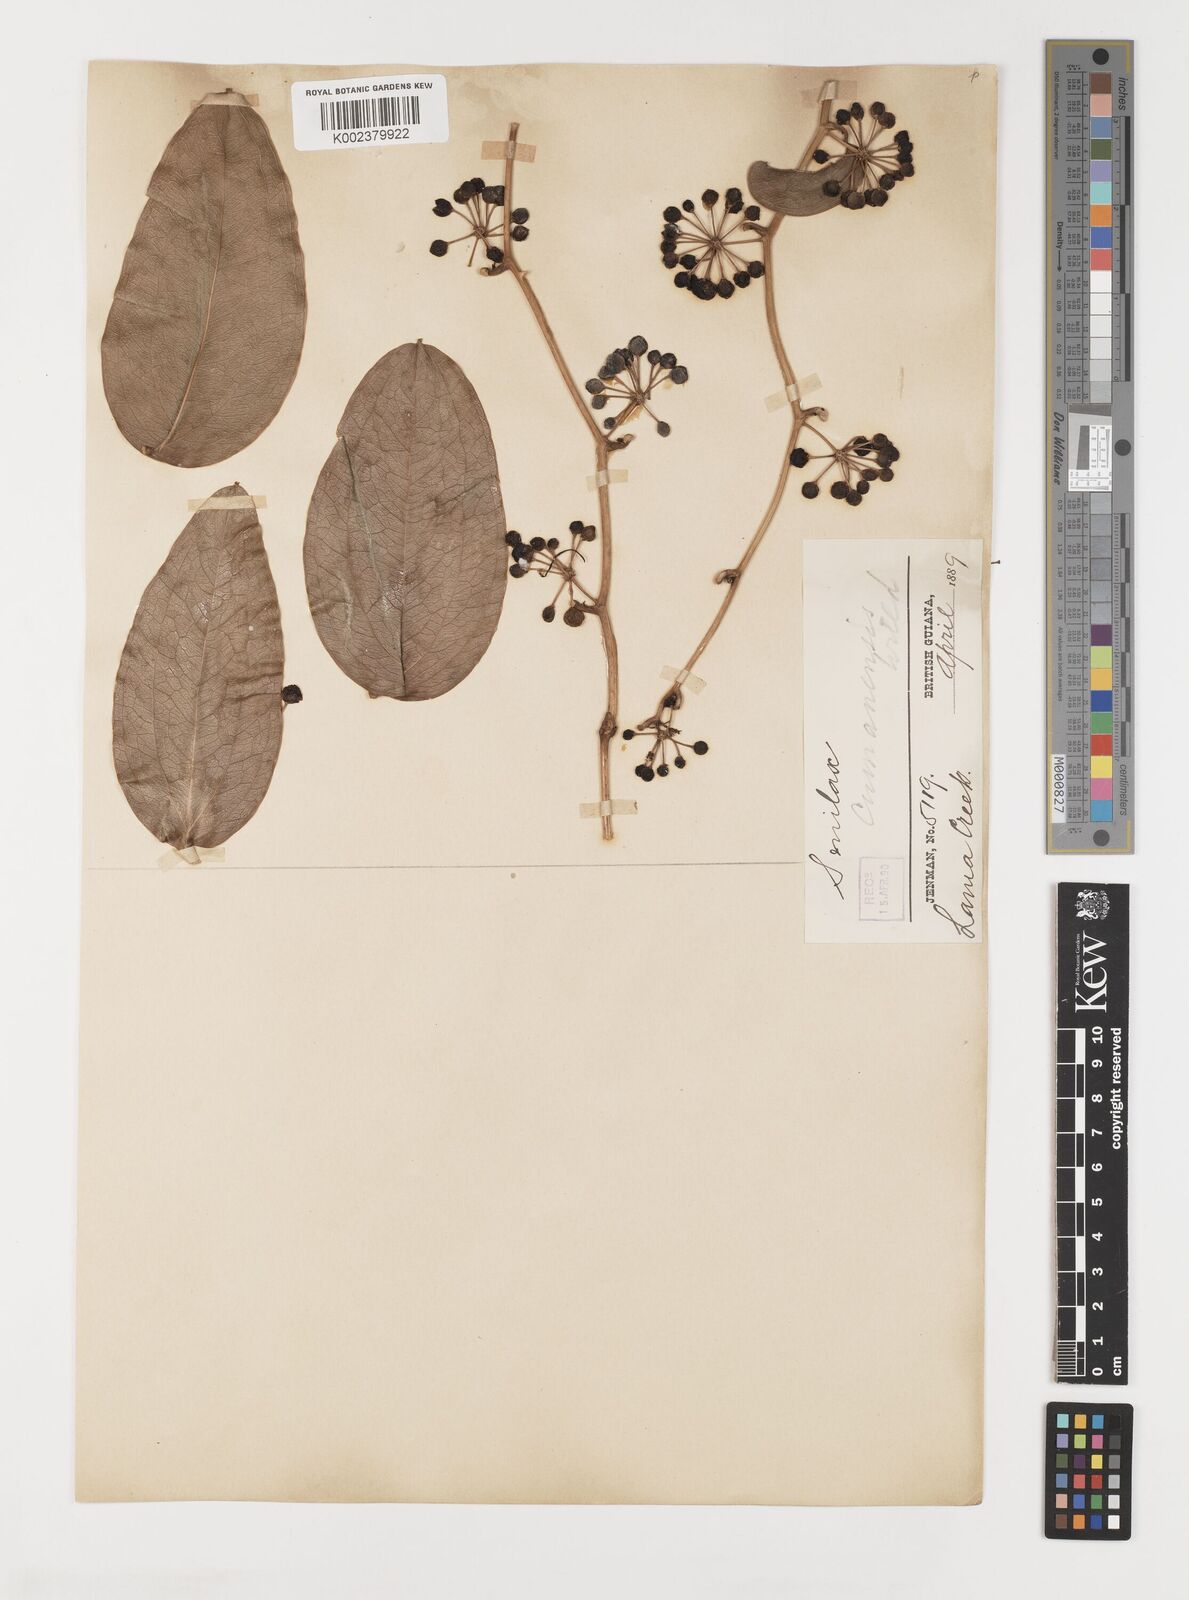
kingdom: Plantae
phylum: Tracheophyta
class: Liliopsida
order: Liliales
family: Smilacaceae
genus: Smilax
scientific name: Smilax oblongata
